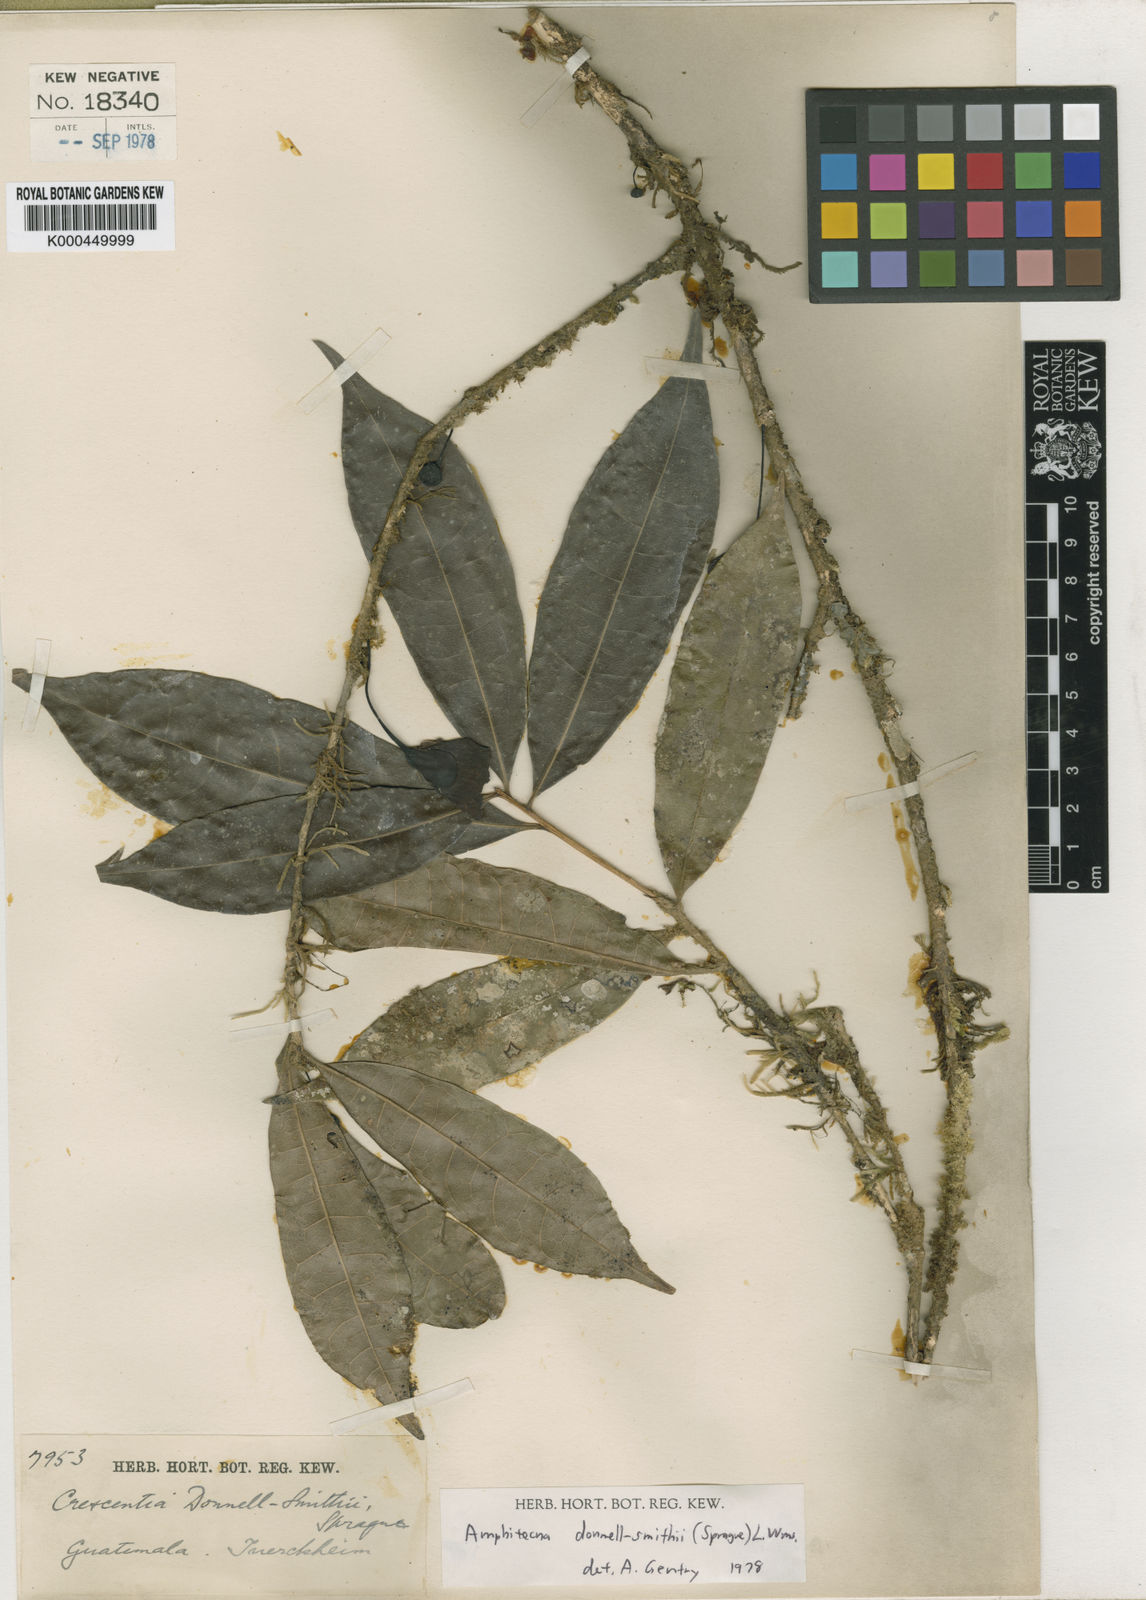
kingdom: Plantae
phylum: Tracheophyta
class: Magnoliopsida
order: Lamiales
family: Bignoniaceae
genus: Amphitecna
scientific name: Amphitecna donnell-smithii
